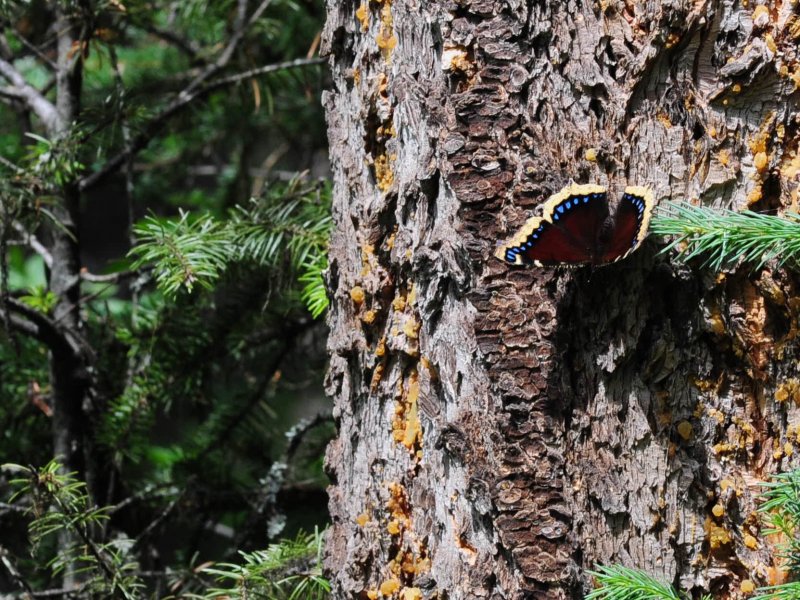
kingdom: Animalia
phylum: Arthropoda
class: Insecta
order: Lepidoptera
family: Nymphalidae
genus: Nymphalis
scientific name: Nymphalis antiopa
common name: Mourning Cloak
